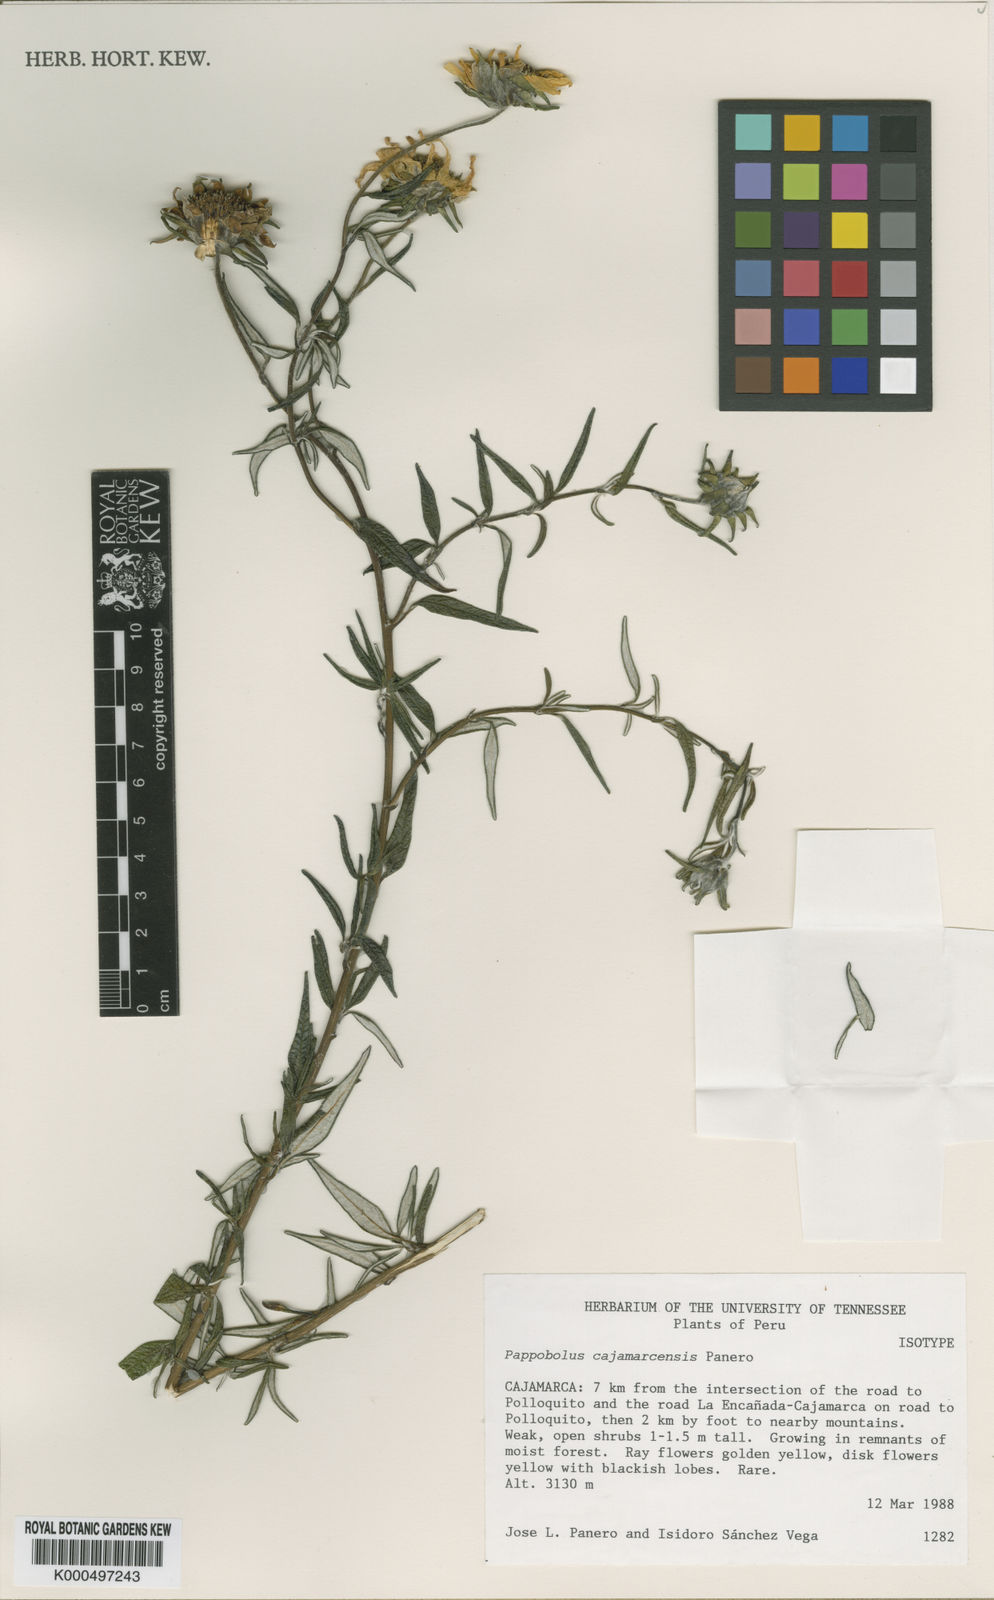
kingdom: Plantae
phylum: Tracheophyta
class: Magnoliopsida
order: Asterales
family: Asteraceae
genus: Pappobolus
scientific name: Pappobolus cajamarcensis
